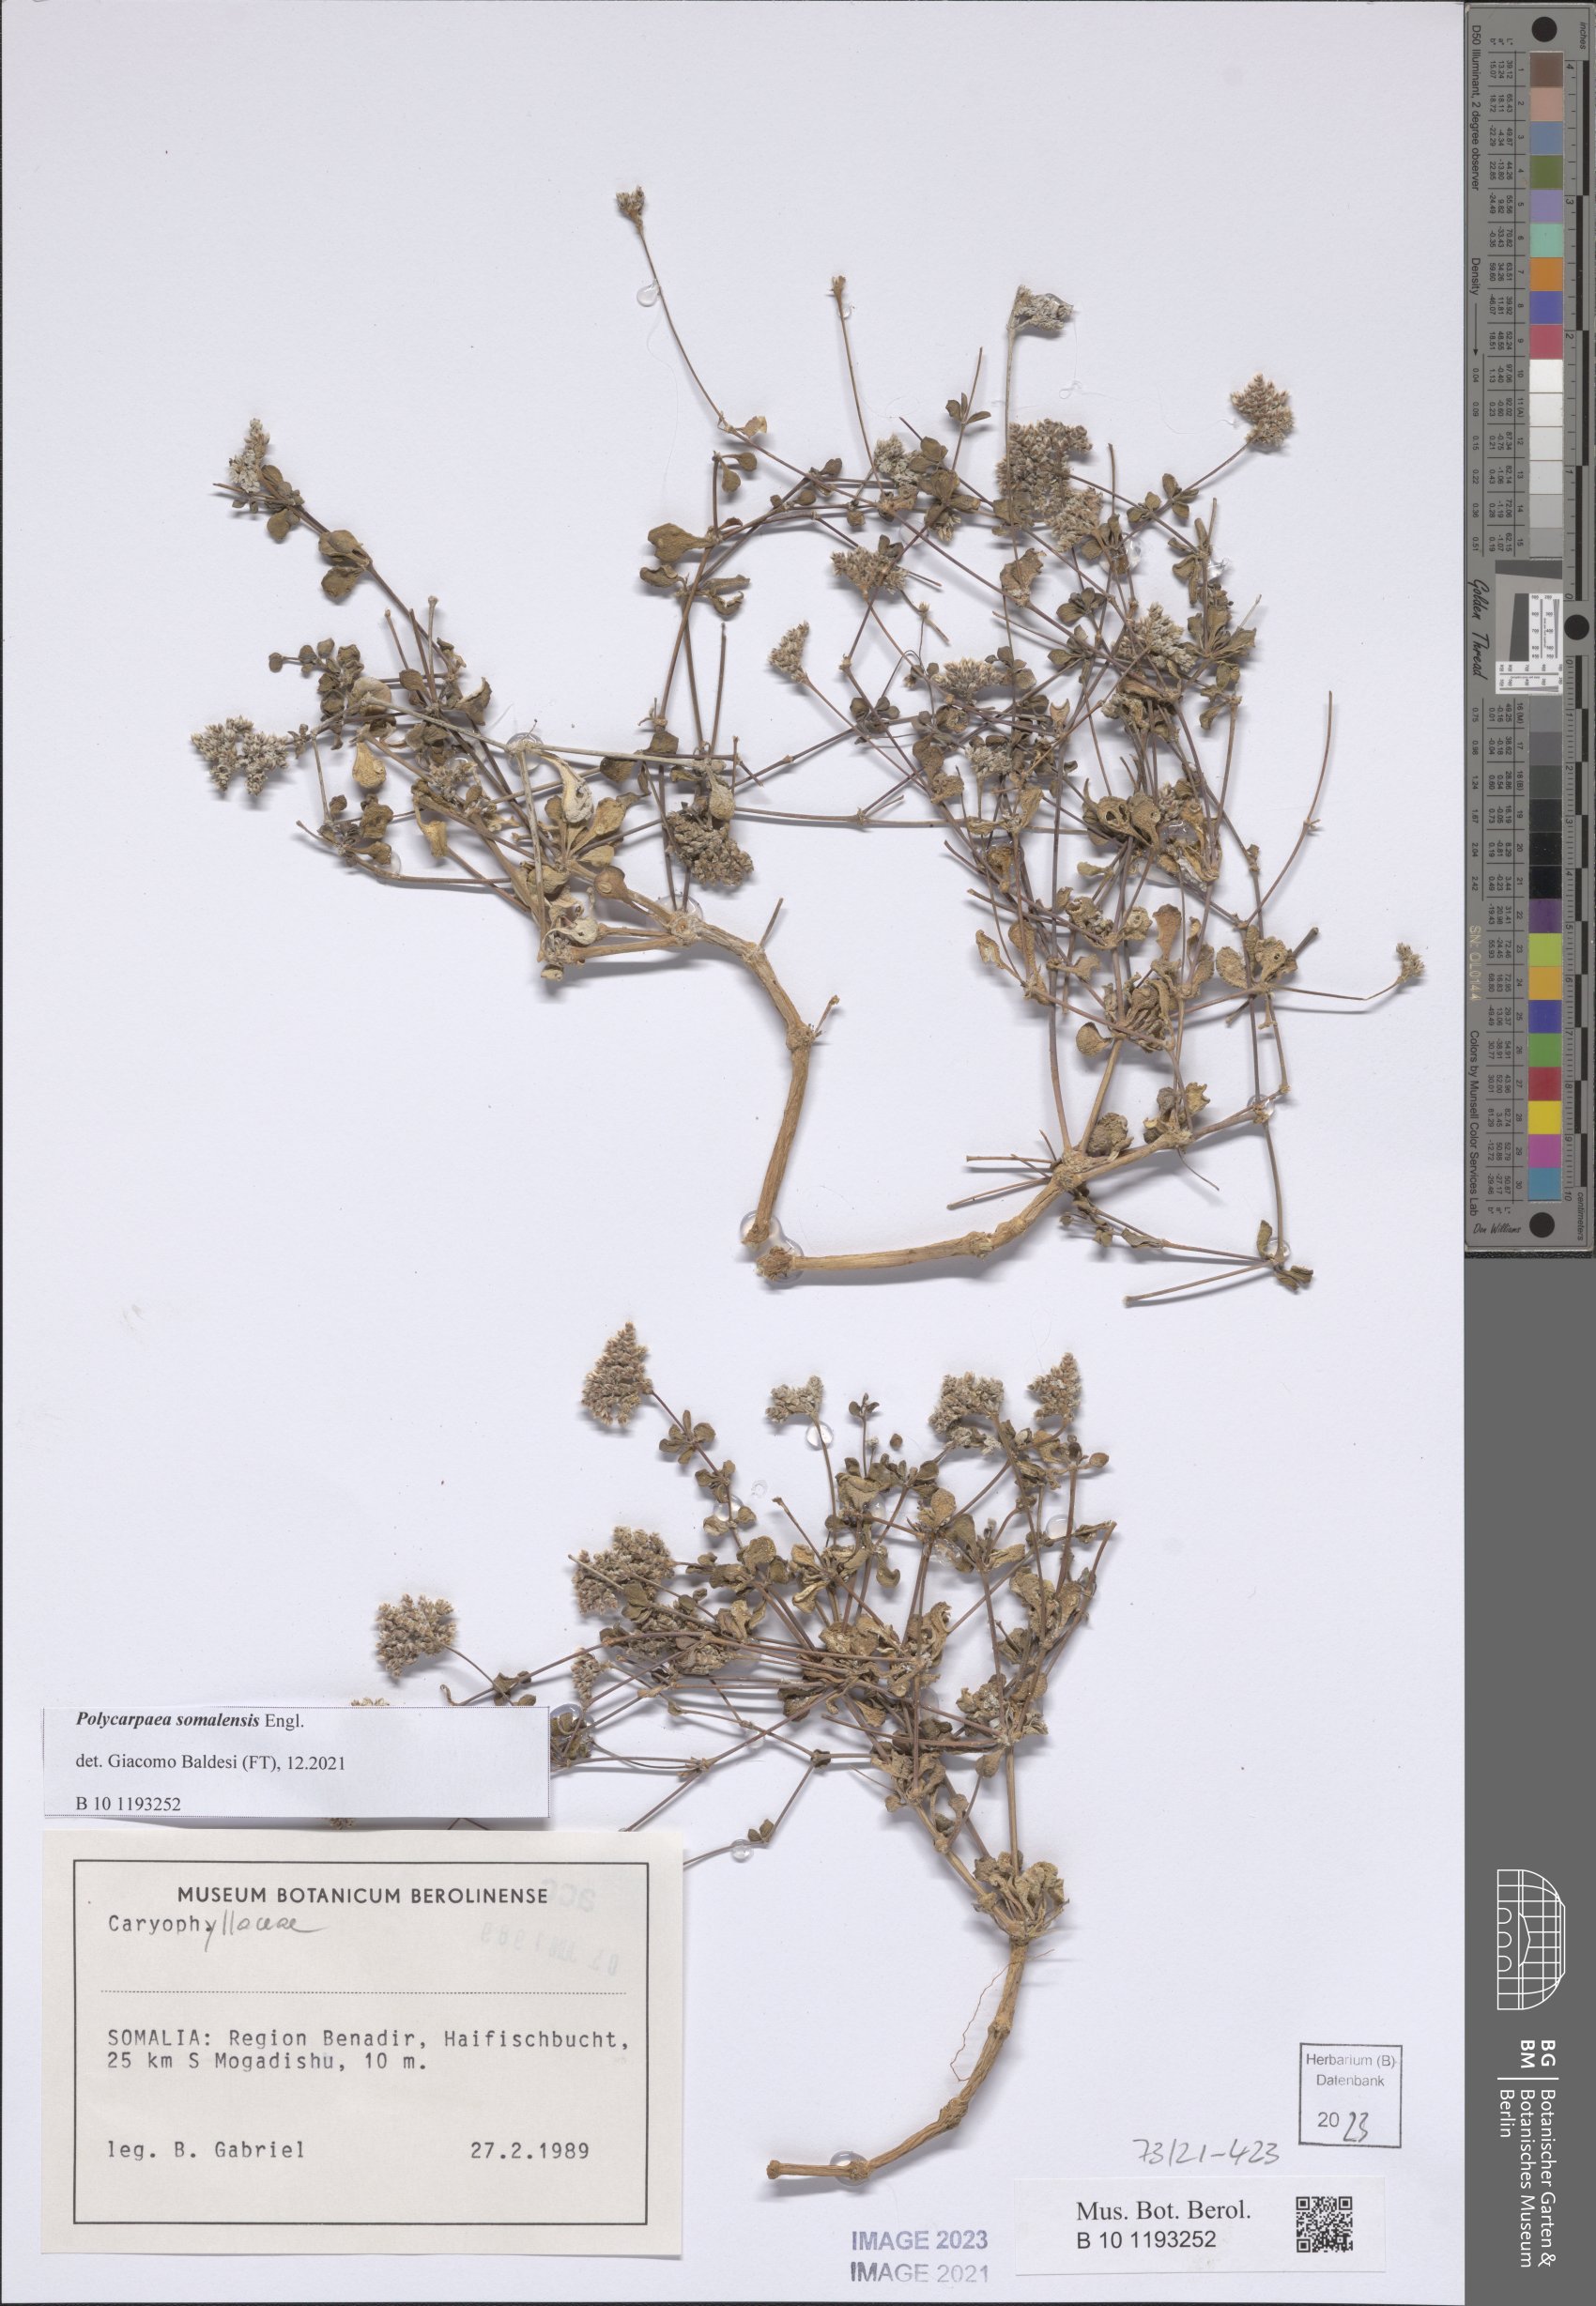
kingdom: Plantae
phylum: Tracheophyta
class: Magnoliopsida
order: Caryophyllales
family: Caryophyllaceae
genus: Polycarpaea
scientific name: Polycarpaea somalensis
